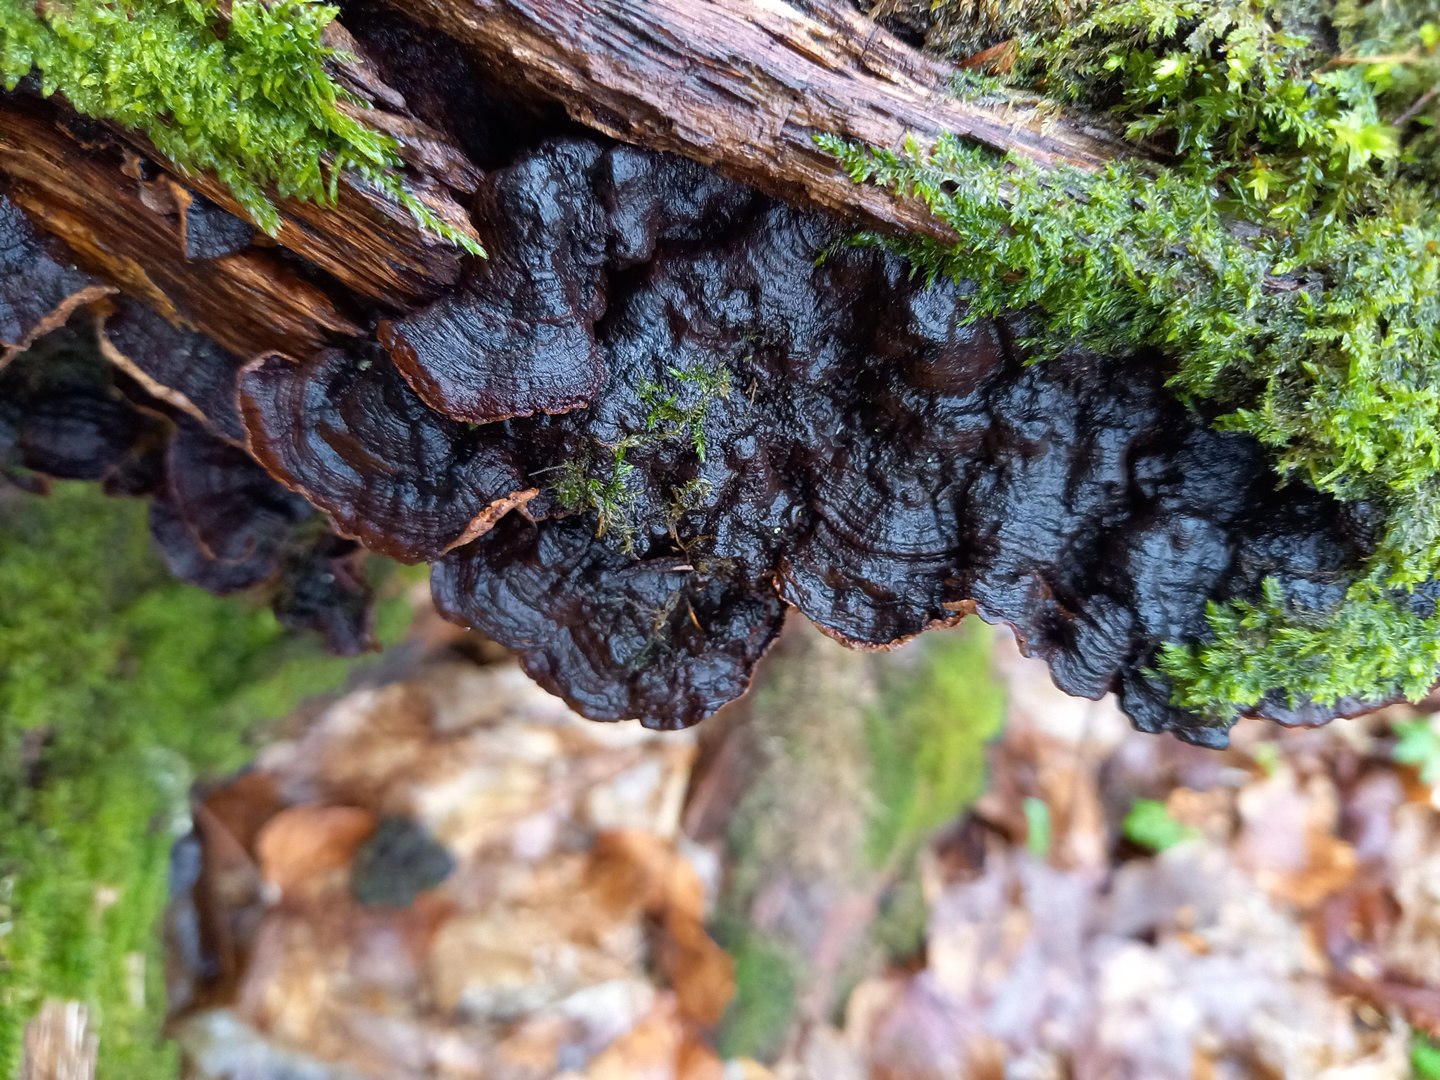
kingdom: Fungi
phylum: Basidiomycota
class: Agaricomycetes
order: Hymenochaetales
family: Hymenochaetaceae
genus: Hymenochaete
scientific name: Hymenochaete rubiginosa
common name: stiv ruslædersvamp
